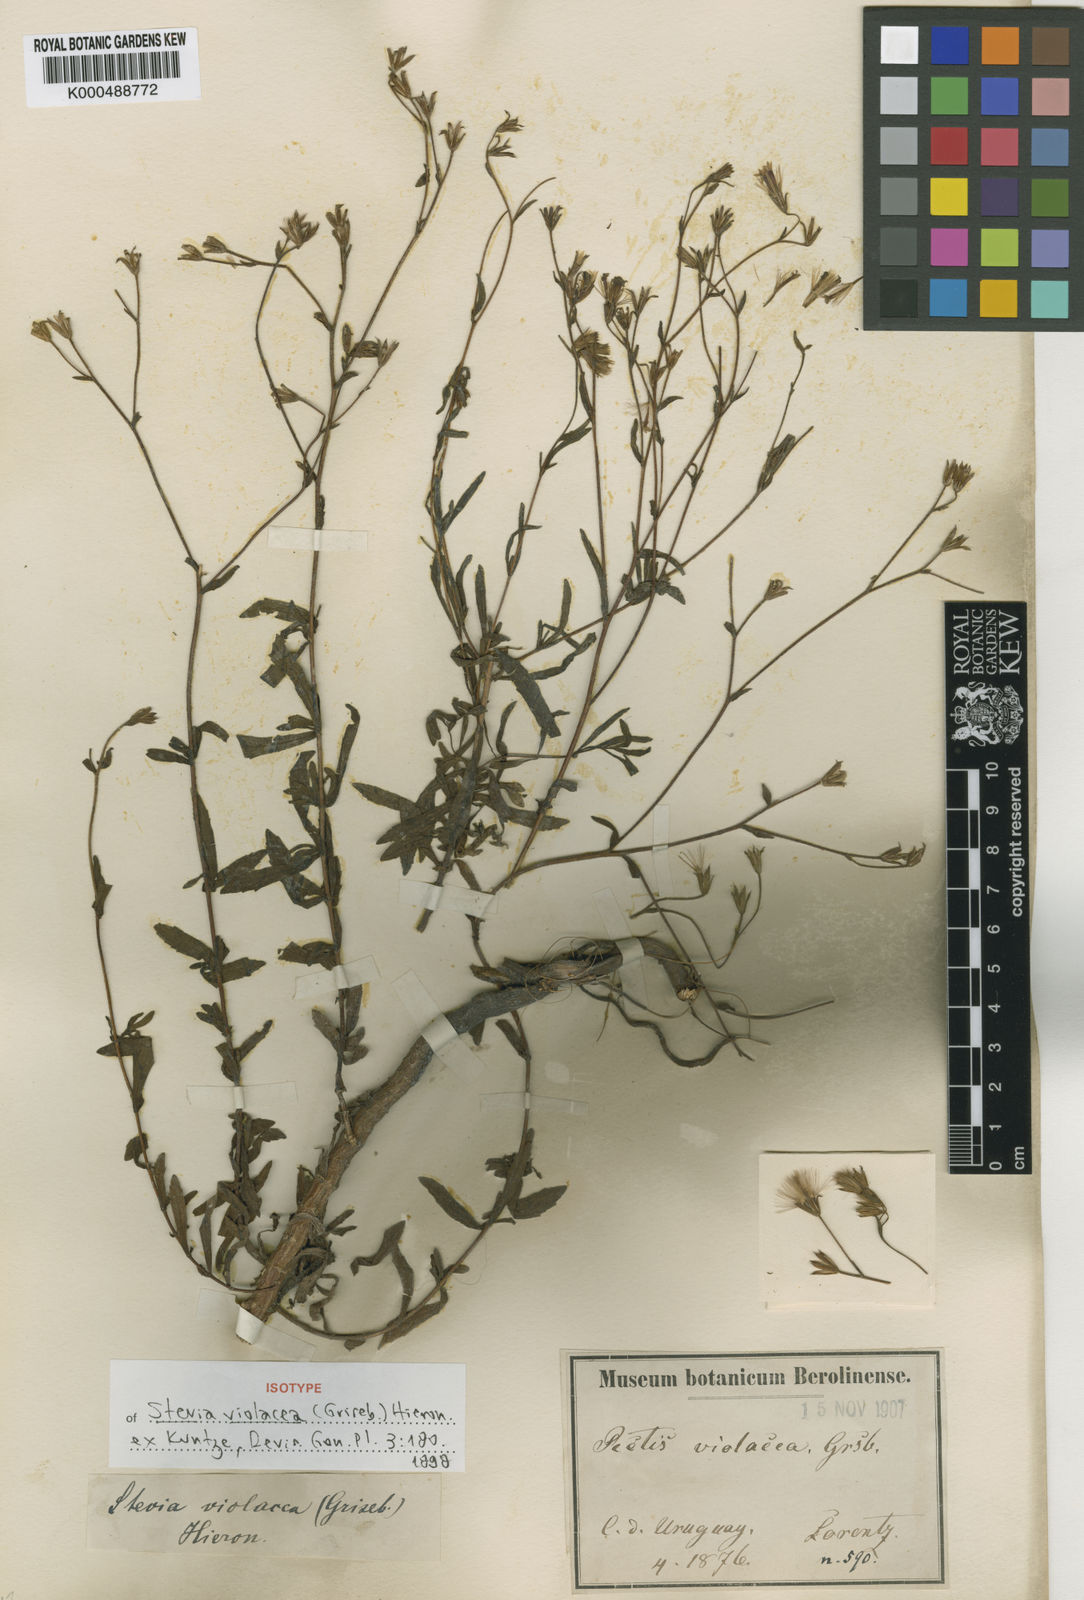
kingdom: Plantae
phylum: Tracheophyta
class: Magnoliopsida
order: Asterales
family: Asteraceae
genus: Stevia
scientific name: Stevia satureifolia
